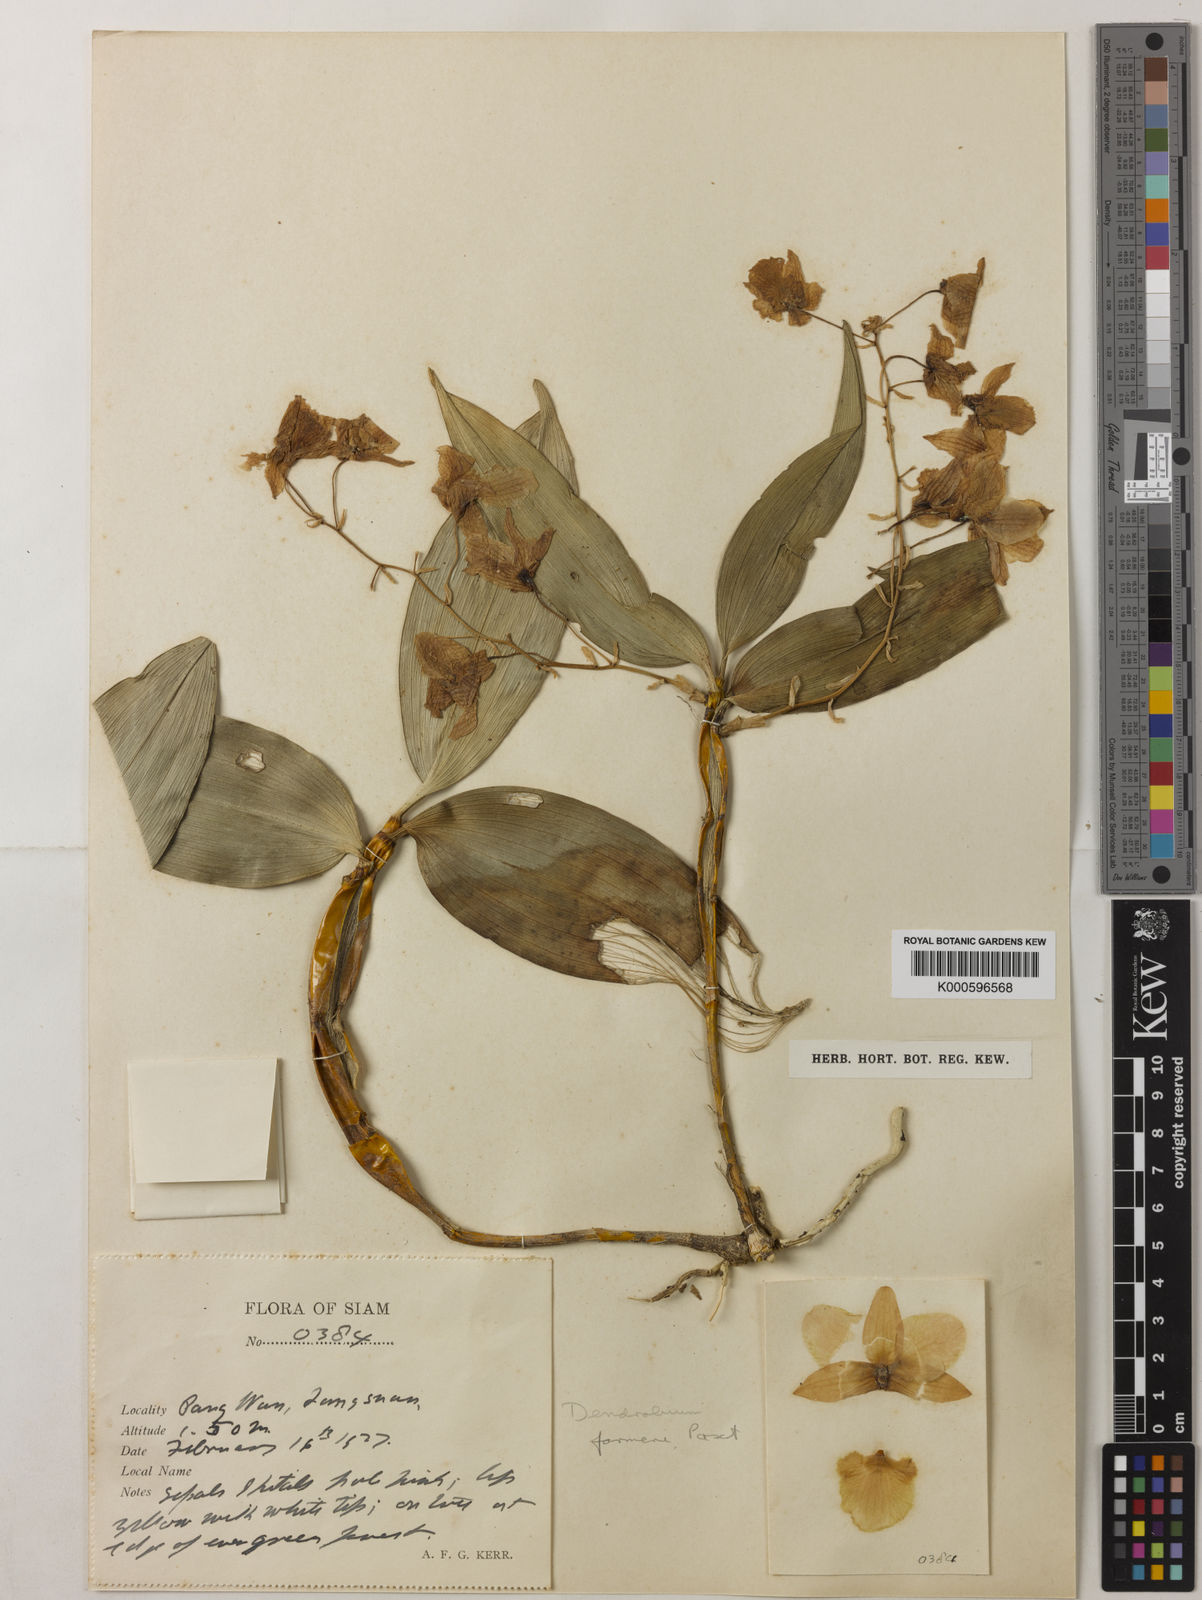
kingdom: Plantae
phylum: Tracheophyta
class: Liliopsida
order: Asparagales
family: Orchidaceae
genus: Dendrobium
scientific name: Dendrobium farmeri
